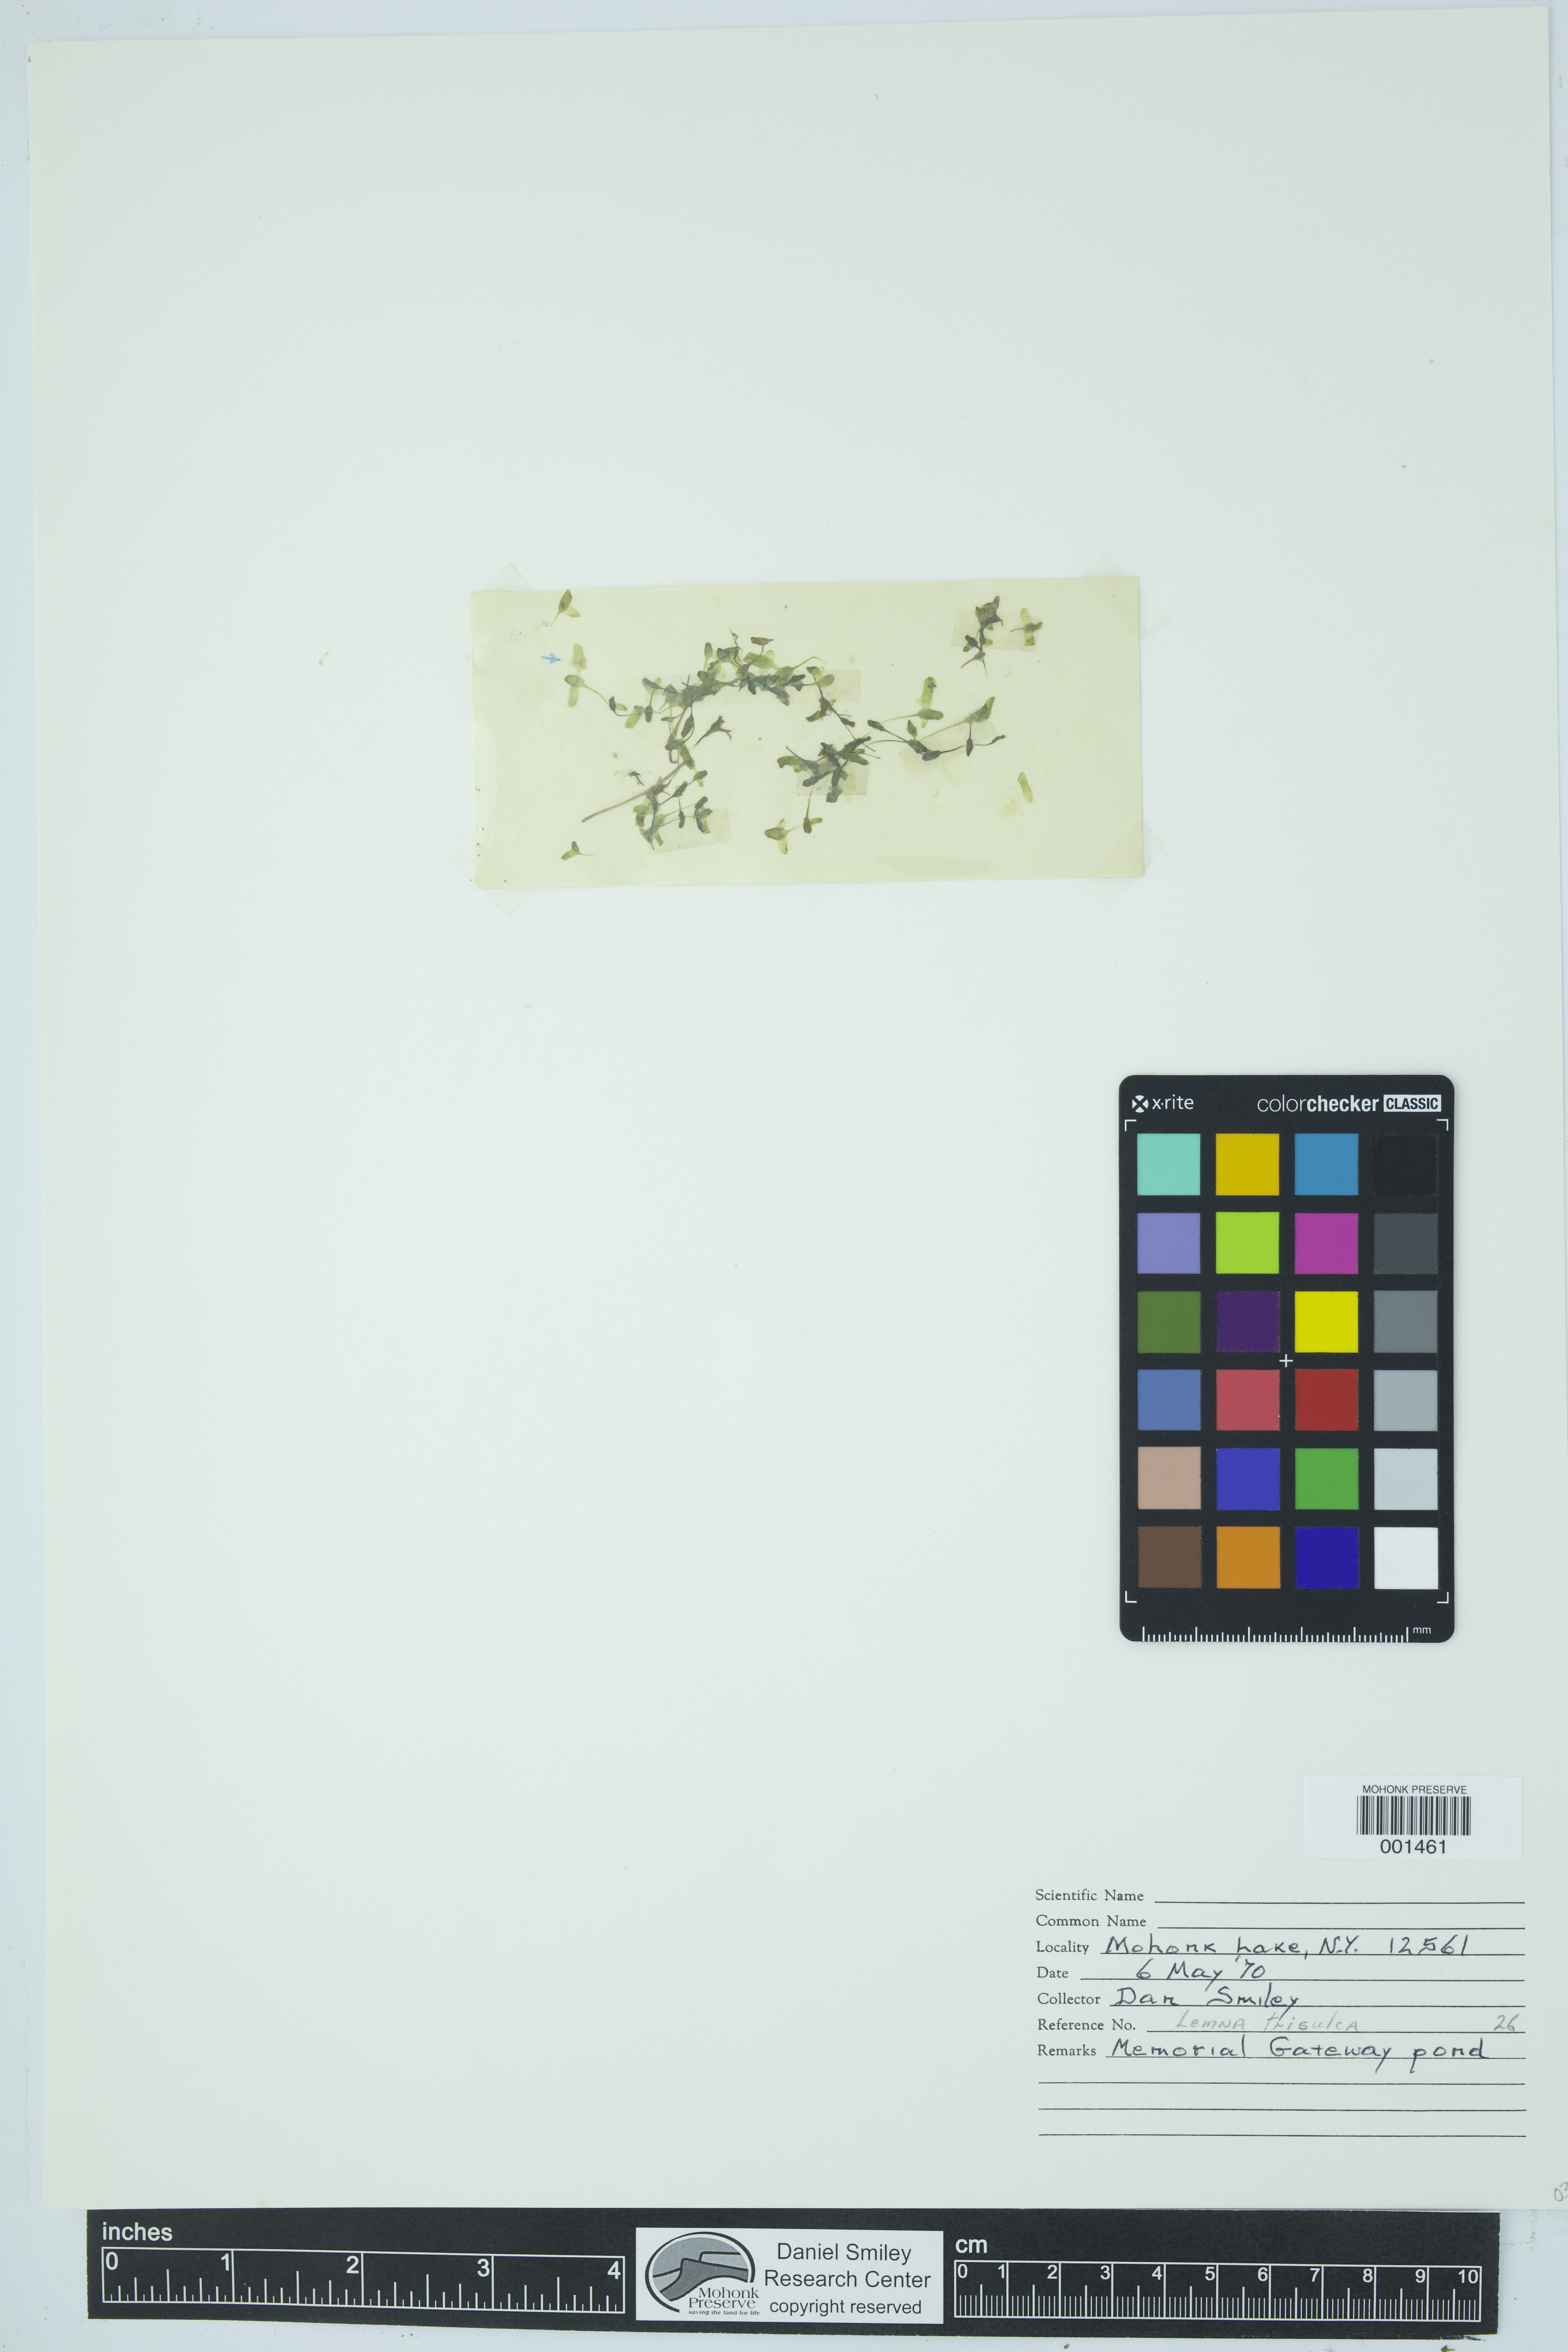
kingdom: Plantae
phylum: Tracheophyta
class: Liliopsida
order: Alismatales
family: Araceae
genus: Lemna
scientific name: Lemna trisulca
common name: Ivy-leaved duckweed
